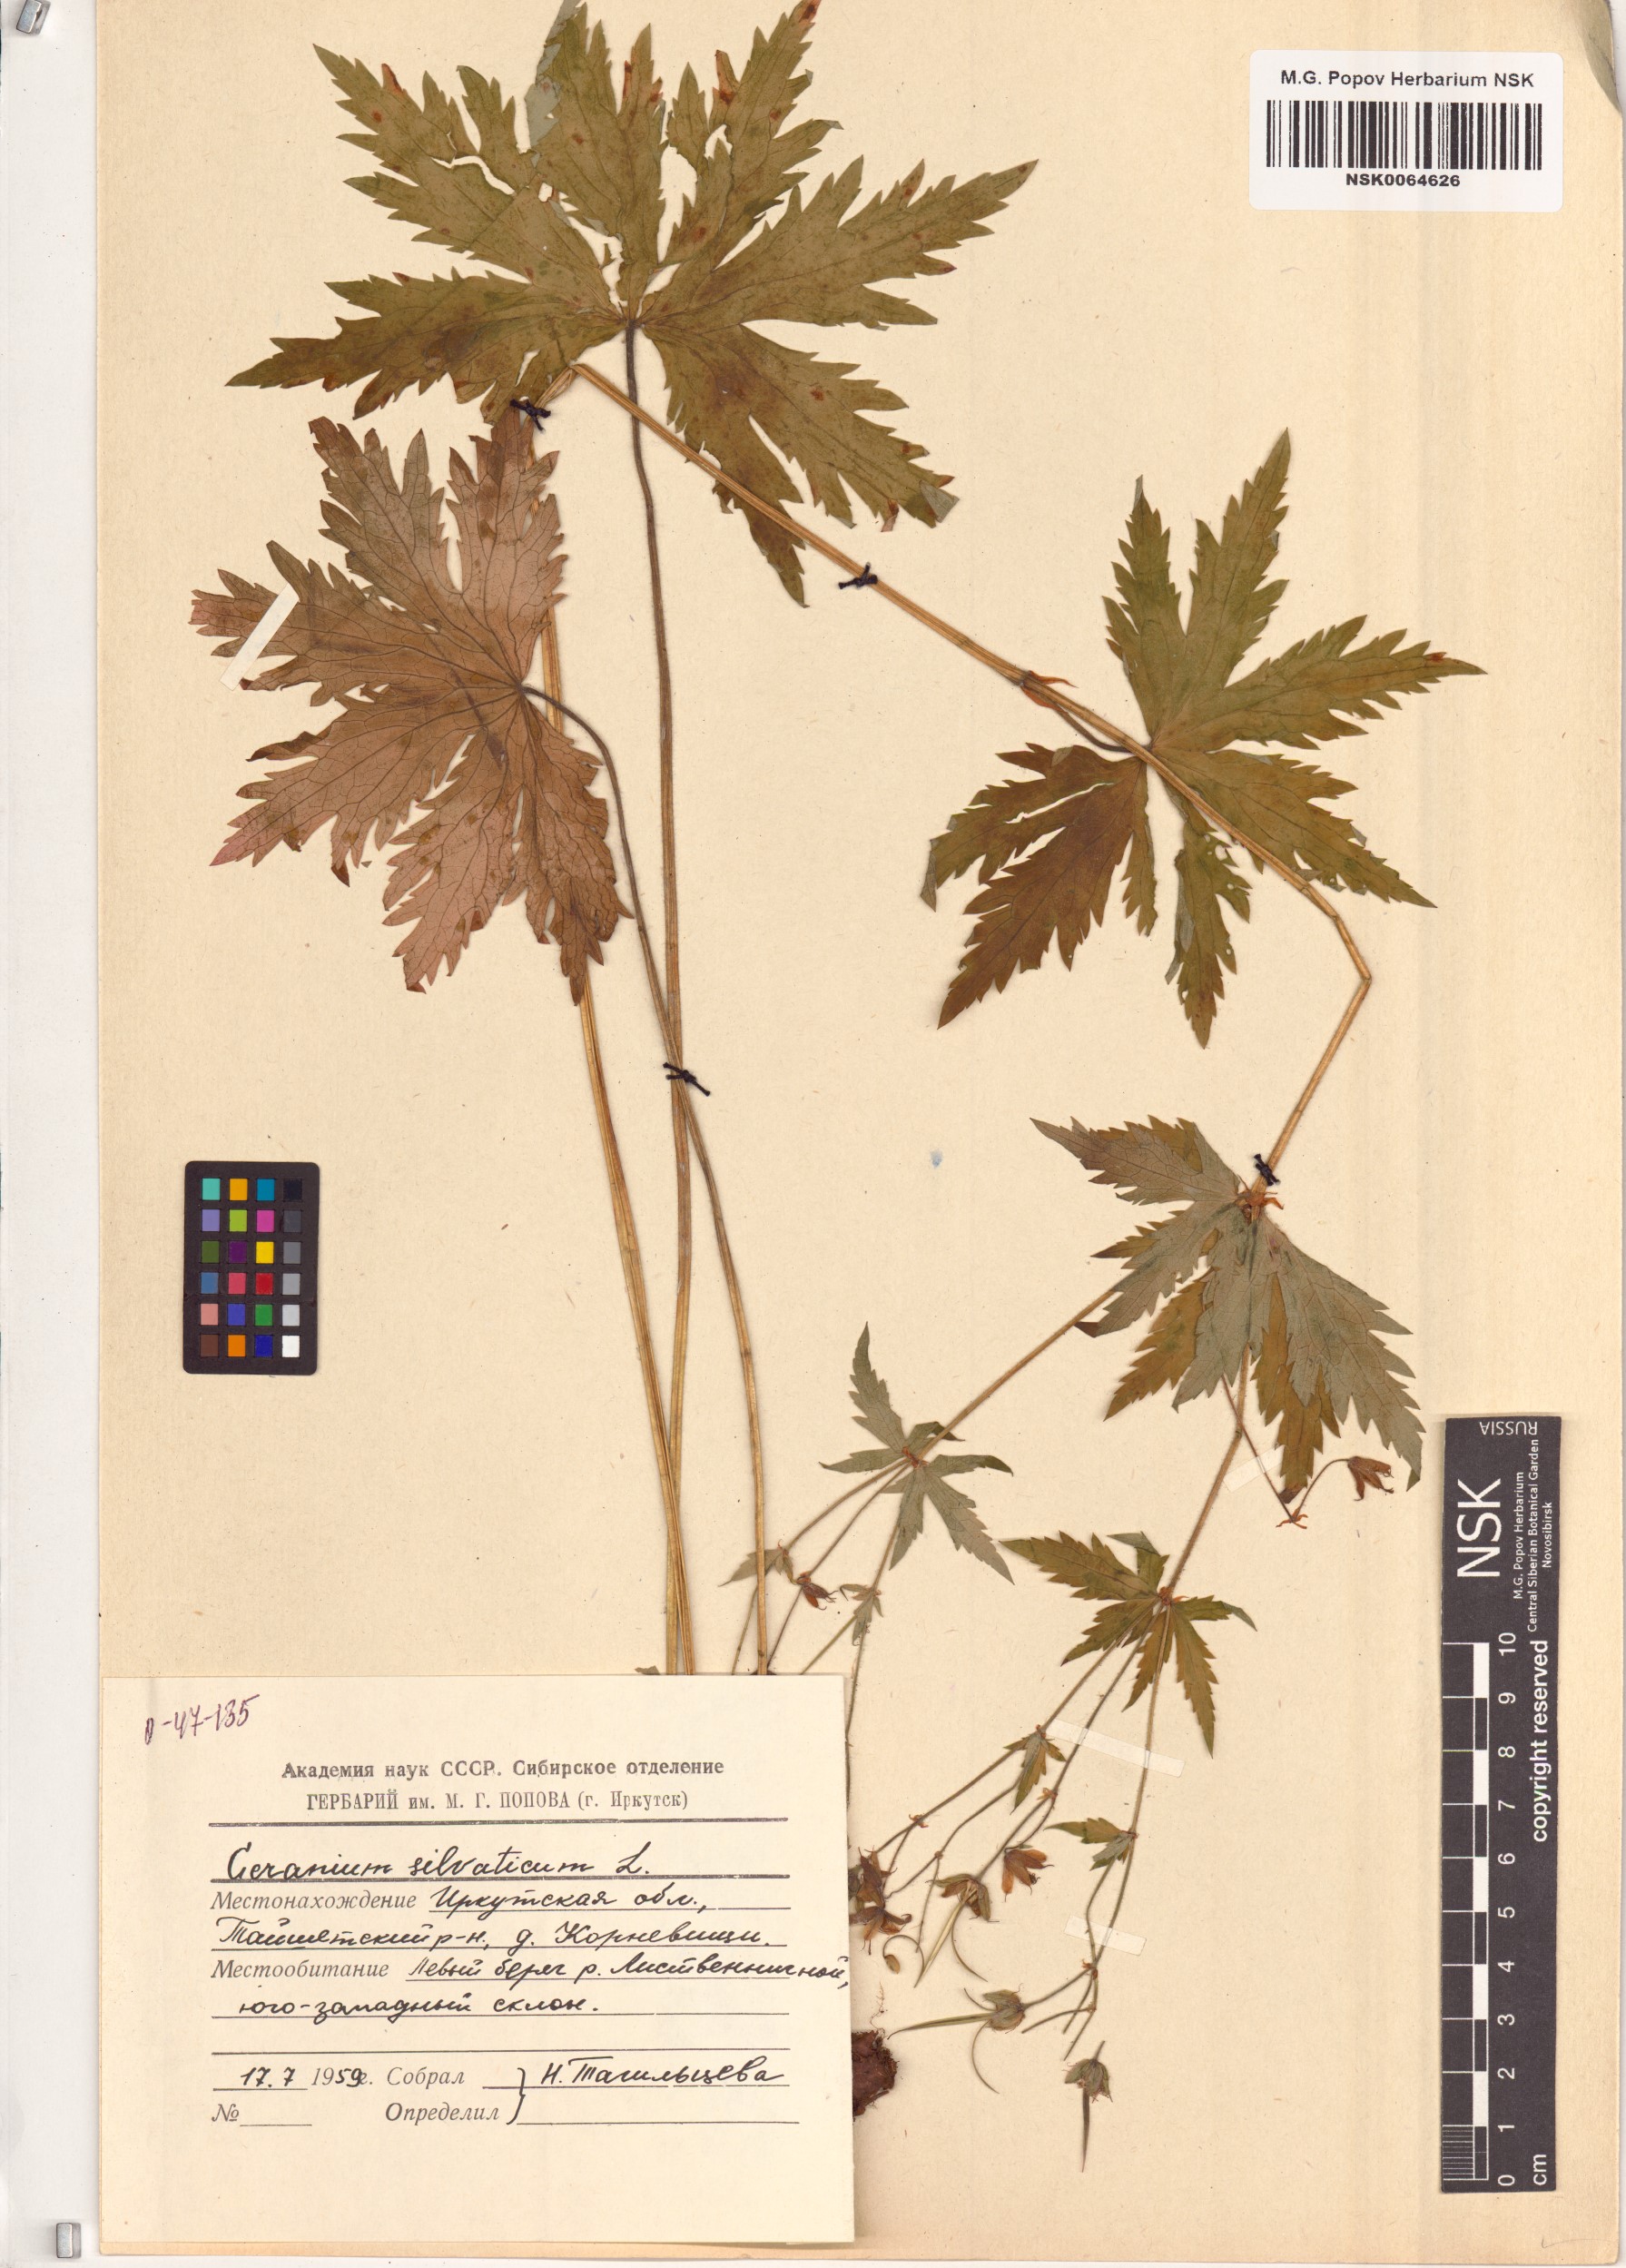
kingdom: Plantae
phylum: Tracheophyta
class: Magnoliopsida
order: Geraniales
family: Geraniaceae
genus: Geranium
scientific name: Geranium sylvaticum
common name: Wood crane's-bill
